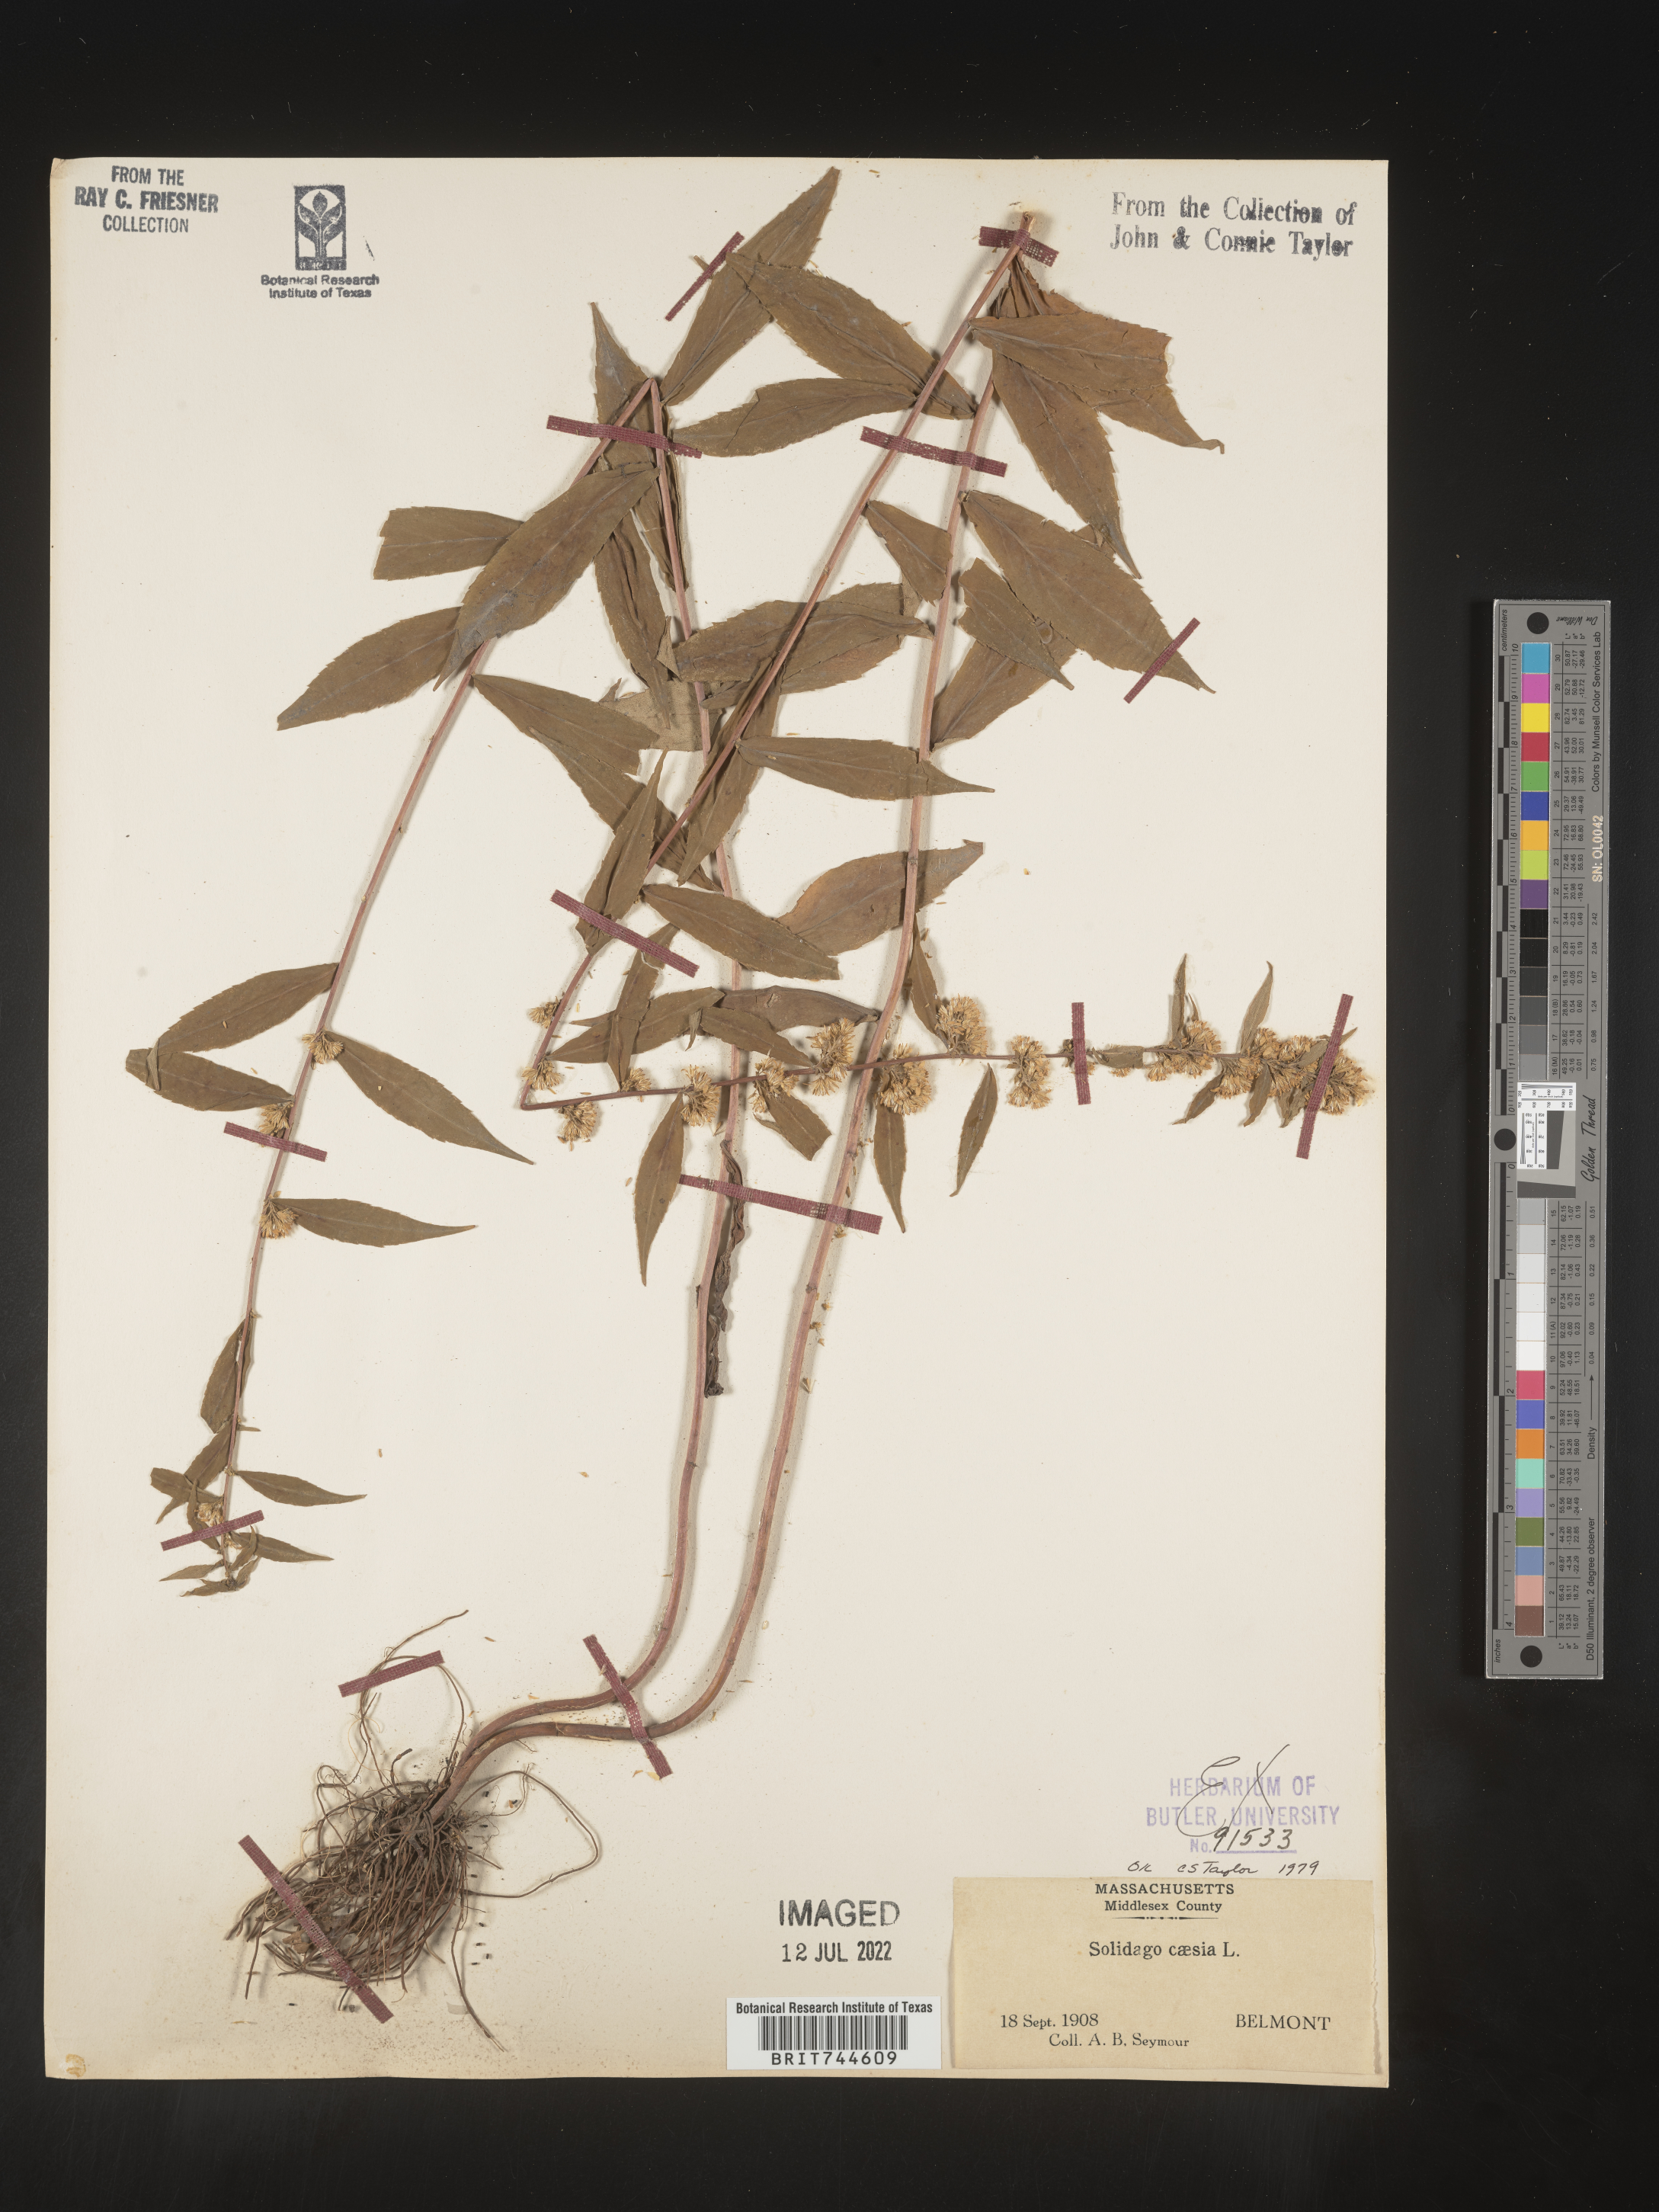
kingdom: Plantae
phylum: Tracheophyta
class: Magnoliopsida
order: Asterales
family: Asteraceae
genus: Solidago
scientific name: Solidago caesia
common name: Woodland goldenrod
